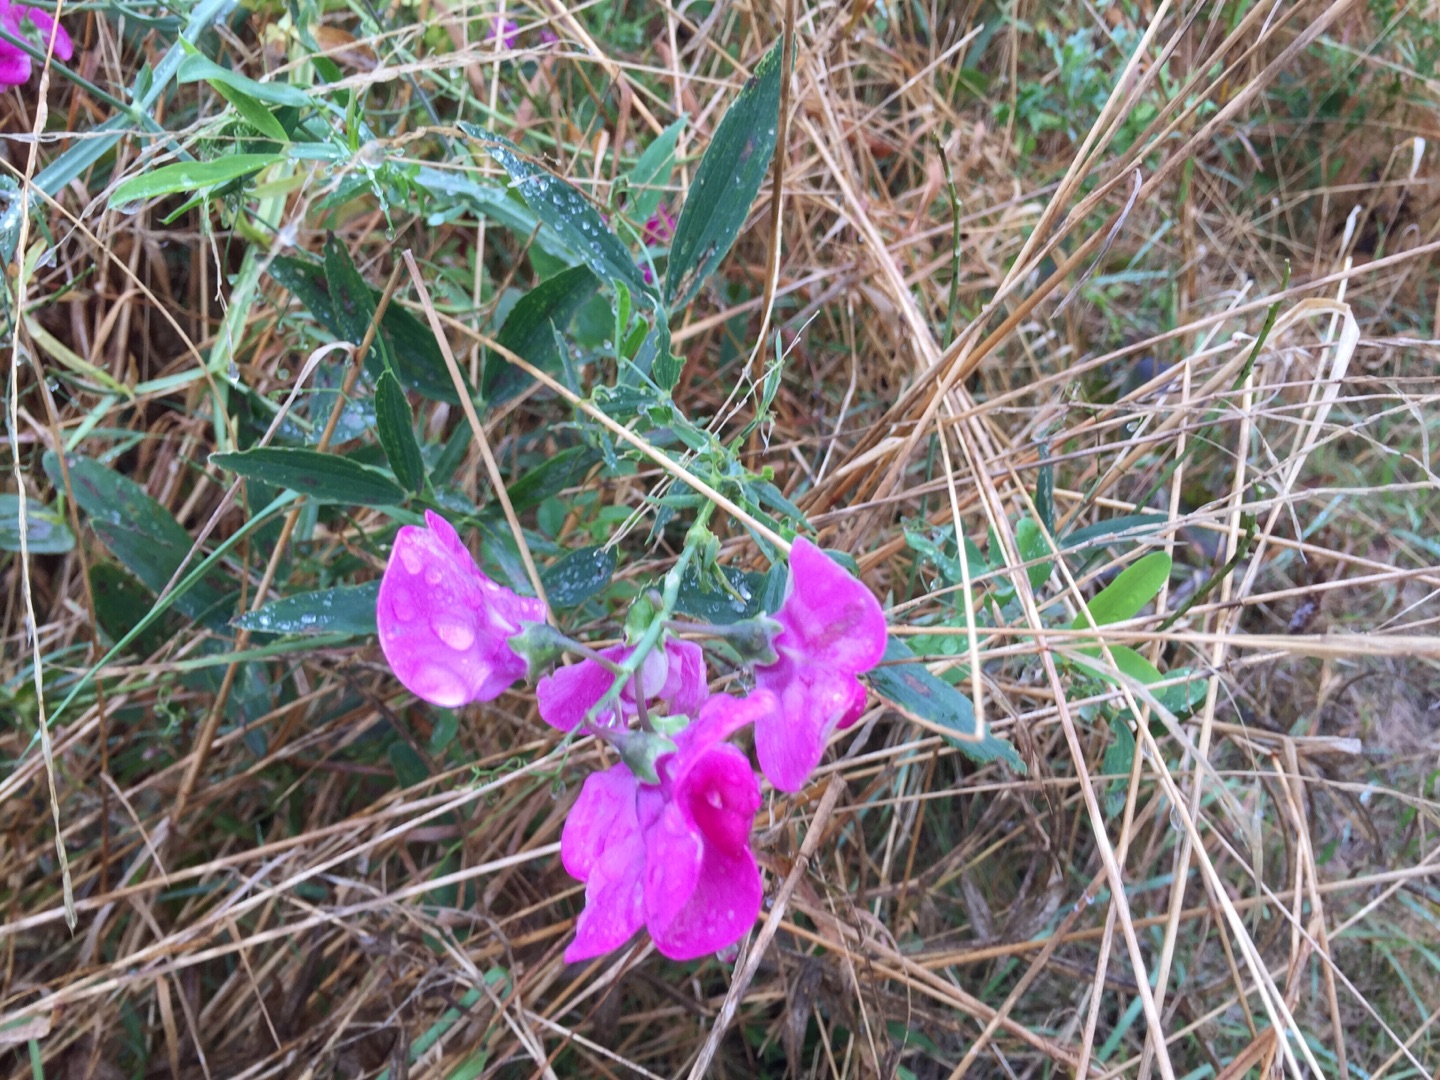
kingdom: Plantae
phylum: Tracheophyta
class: Magnoliopsida
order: Fabales
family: Fabaceae
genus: Lathyrus
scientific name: Lathyrus latifolius
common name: Flerårig ærteblomst
